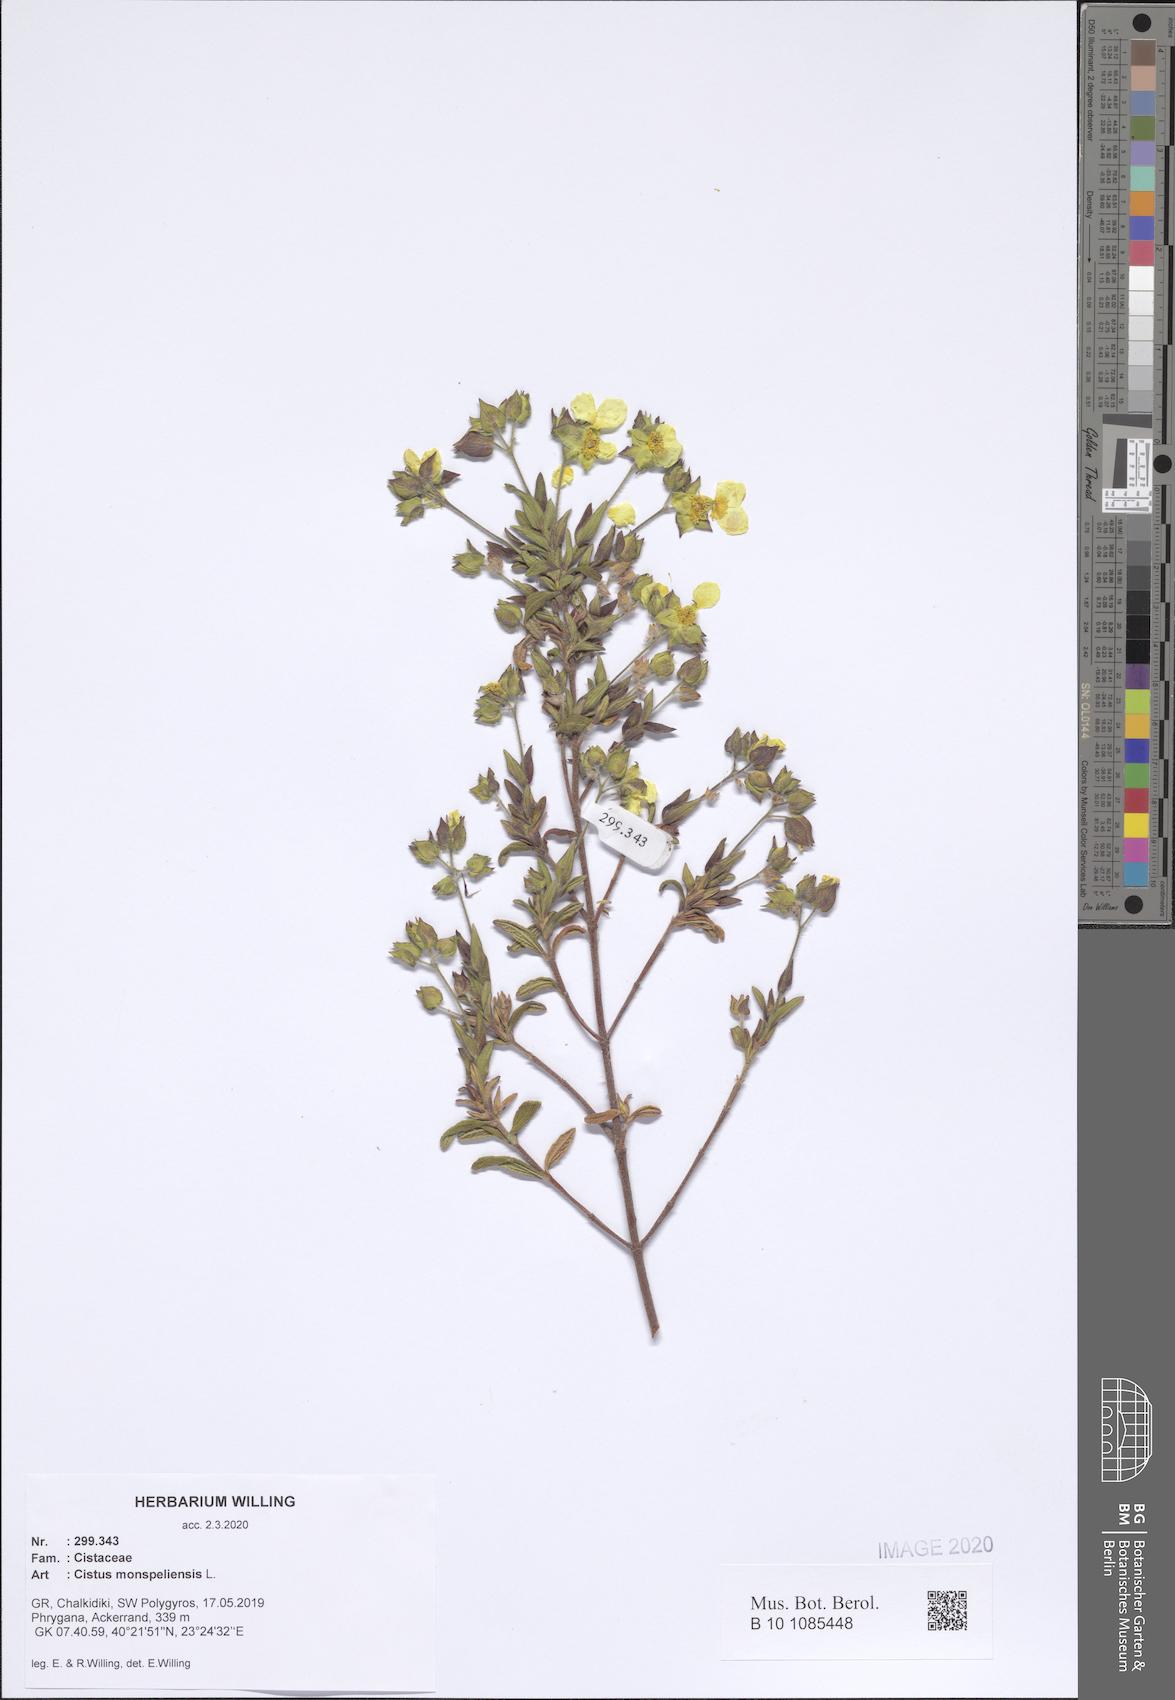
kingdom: Plantae
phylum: Tracheophyta
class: Magnoliopsida
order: Malvales
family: Cistaceae
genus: Cistus
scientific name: Cistus monspeliensis
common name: Montpelier cistus
